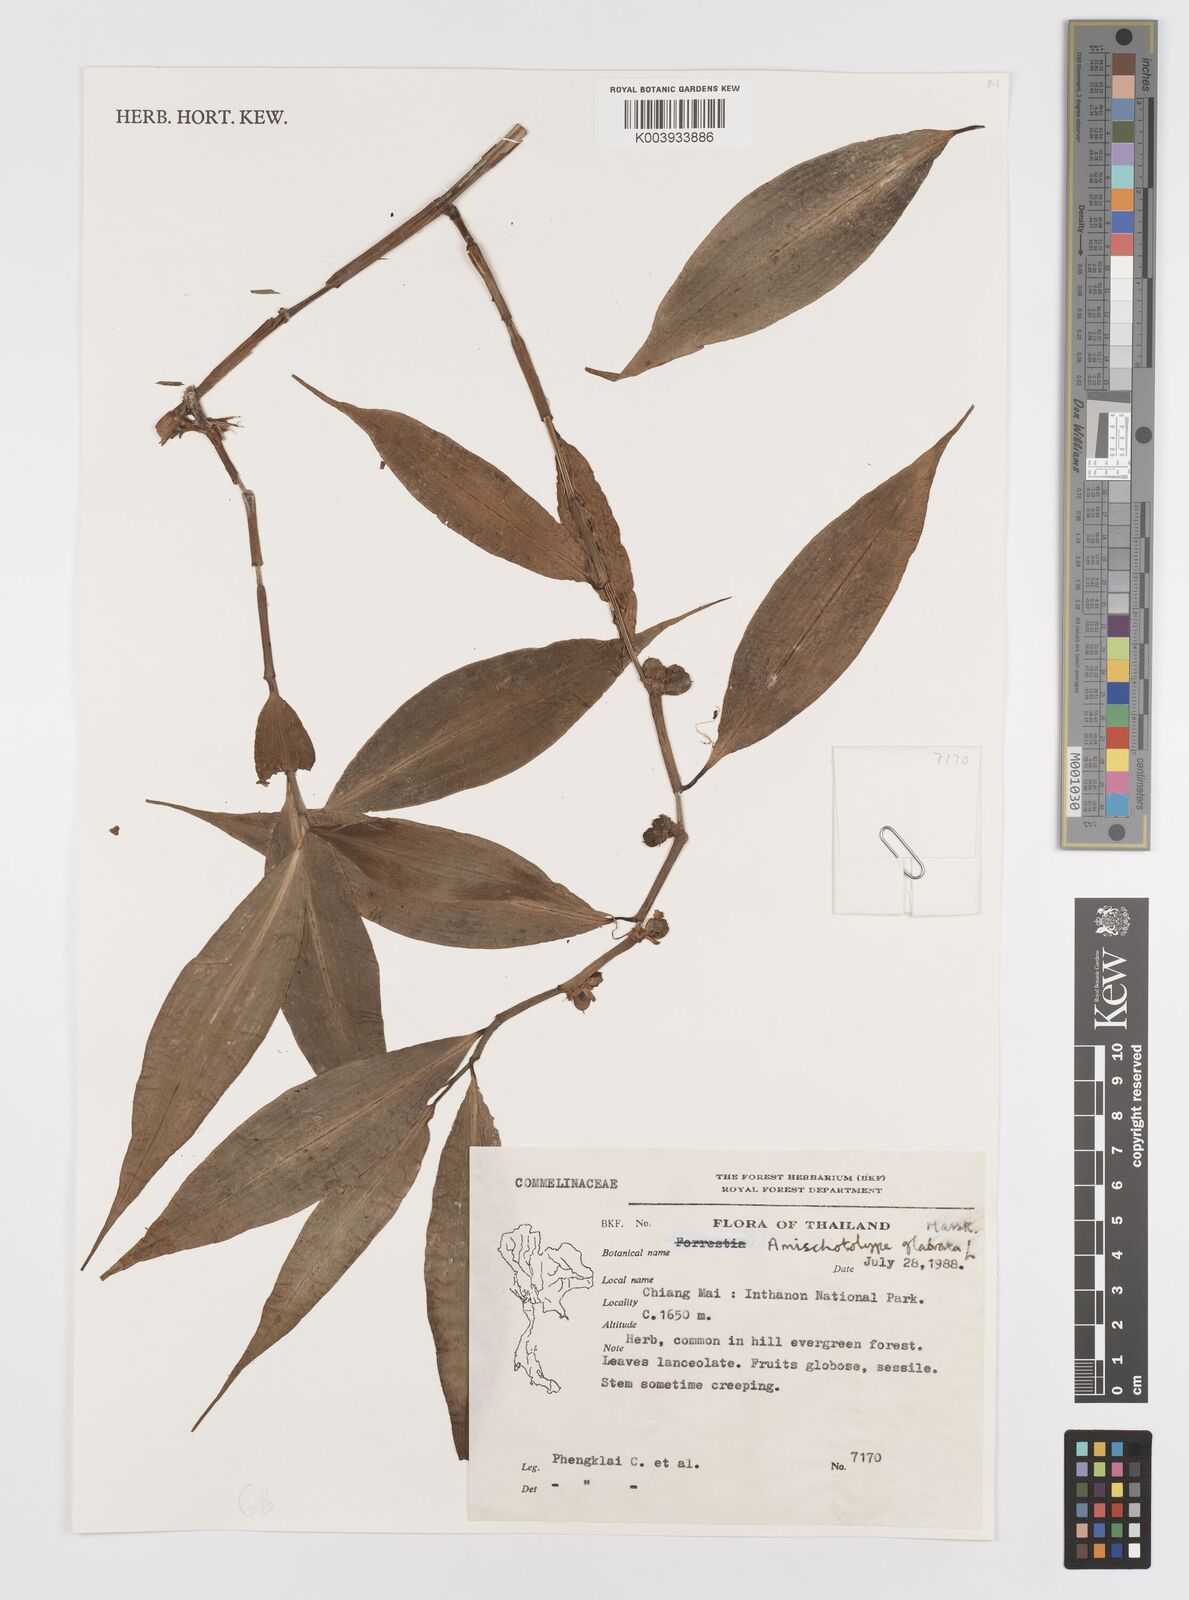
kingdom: Plantae
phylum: Tracheophyta
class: Liliopsida
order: Commelinales
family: Commelinaceae
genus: Amischotolype
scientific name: Amischotolype
